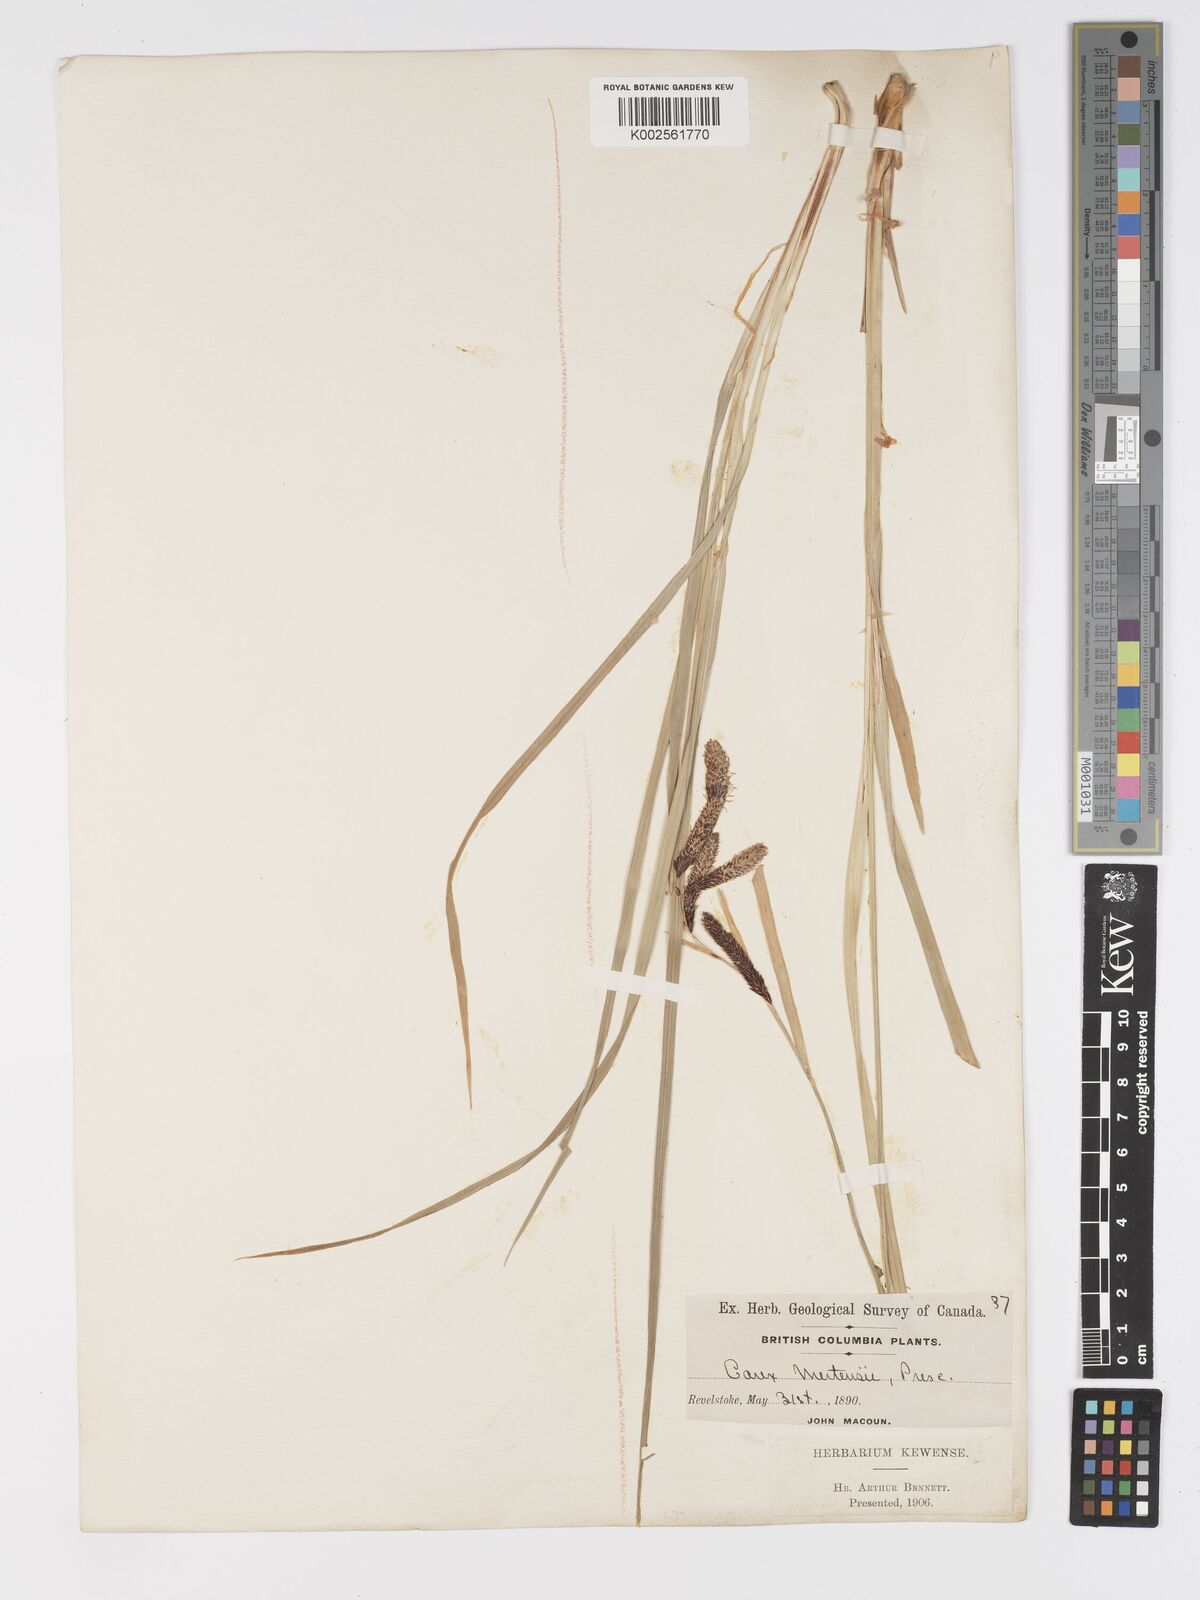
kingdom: Plantae
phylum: Tracheophyta
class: Liliopsida
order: Poales
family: Cyperaceae
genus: Carex
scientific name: Carex mertensii
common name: Mertens' sedge
